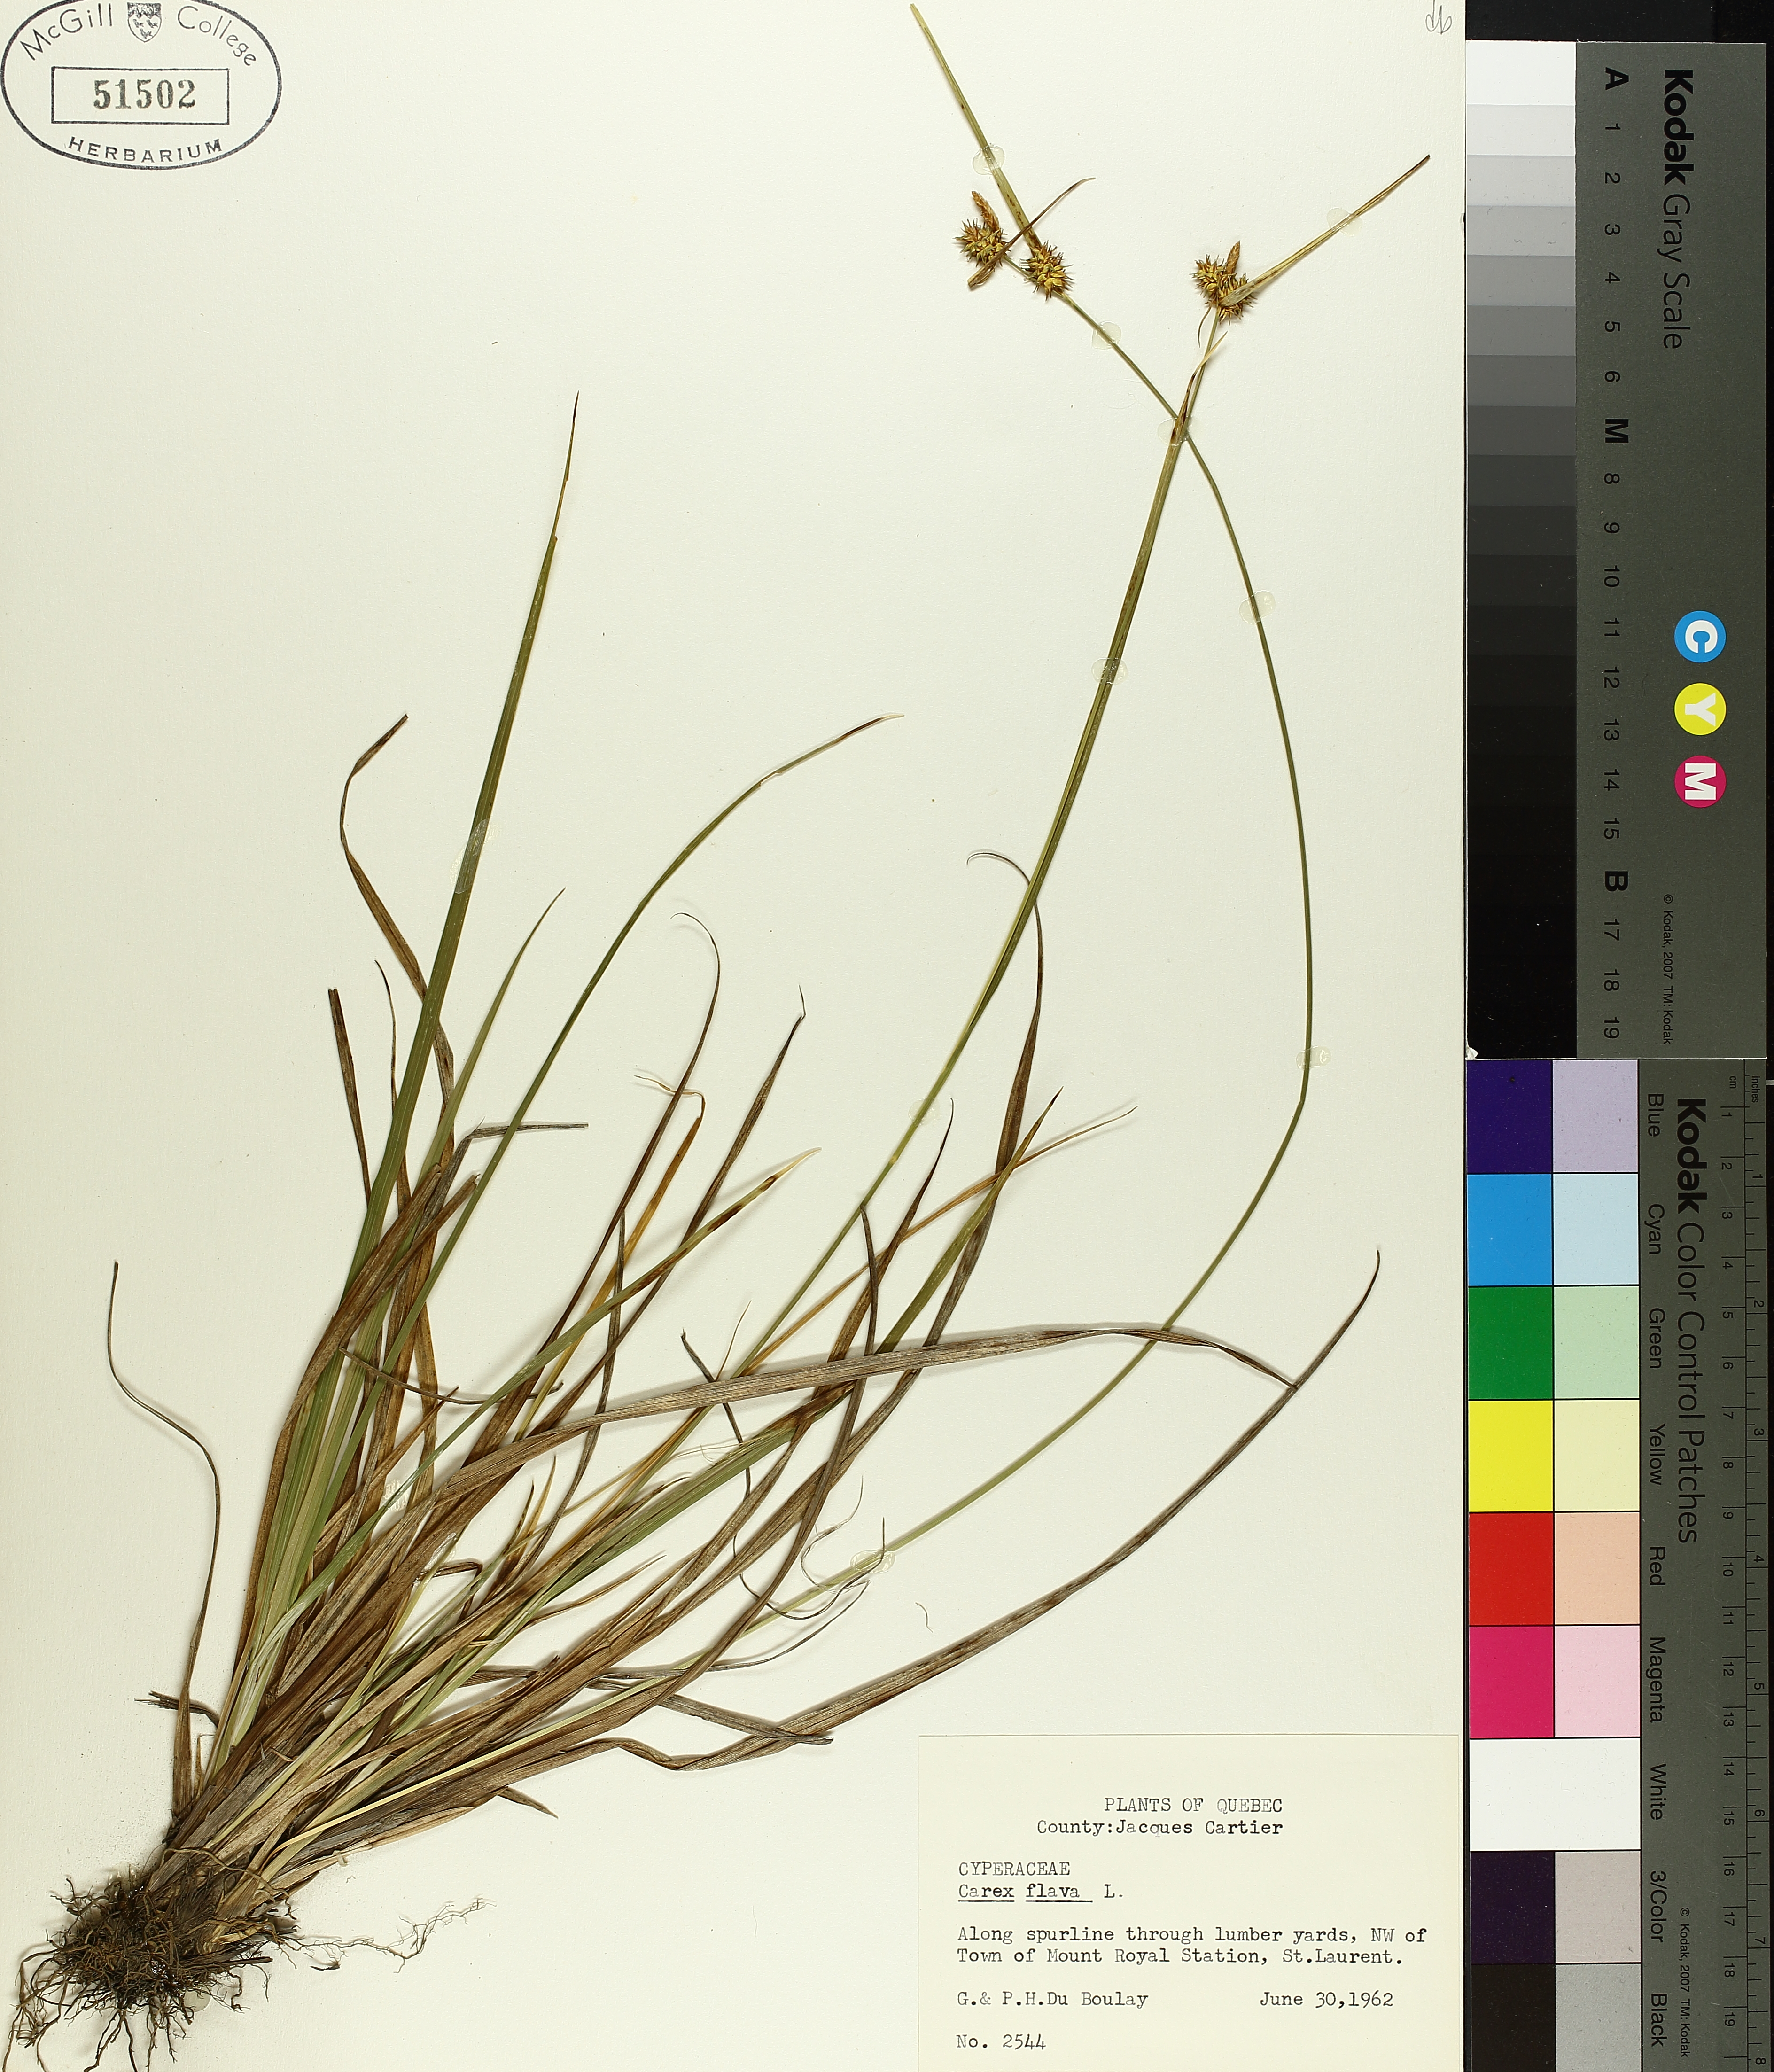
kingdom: Plantae
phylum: Tracheophyta
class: Liliopsida
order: Poales
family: Cyperaceae
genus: Carex
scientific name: Carex flava
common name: Large yellow-sedge
